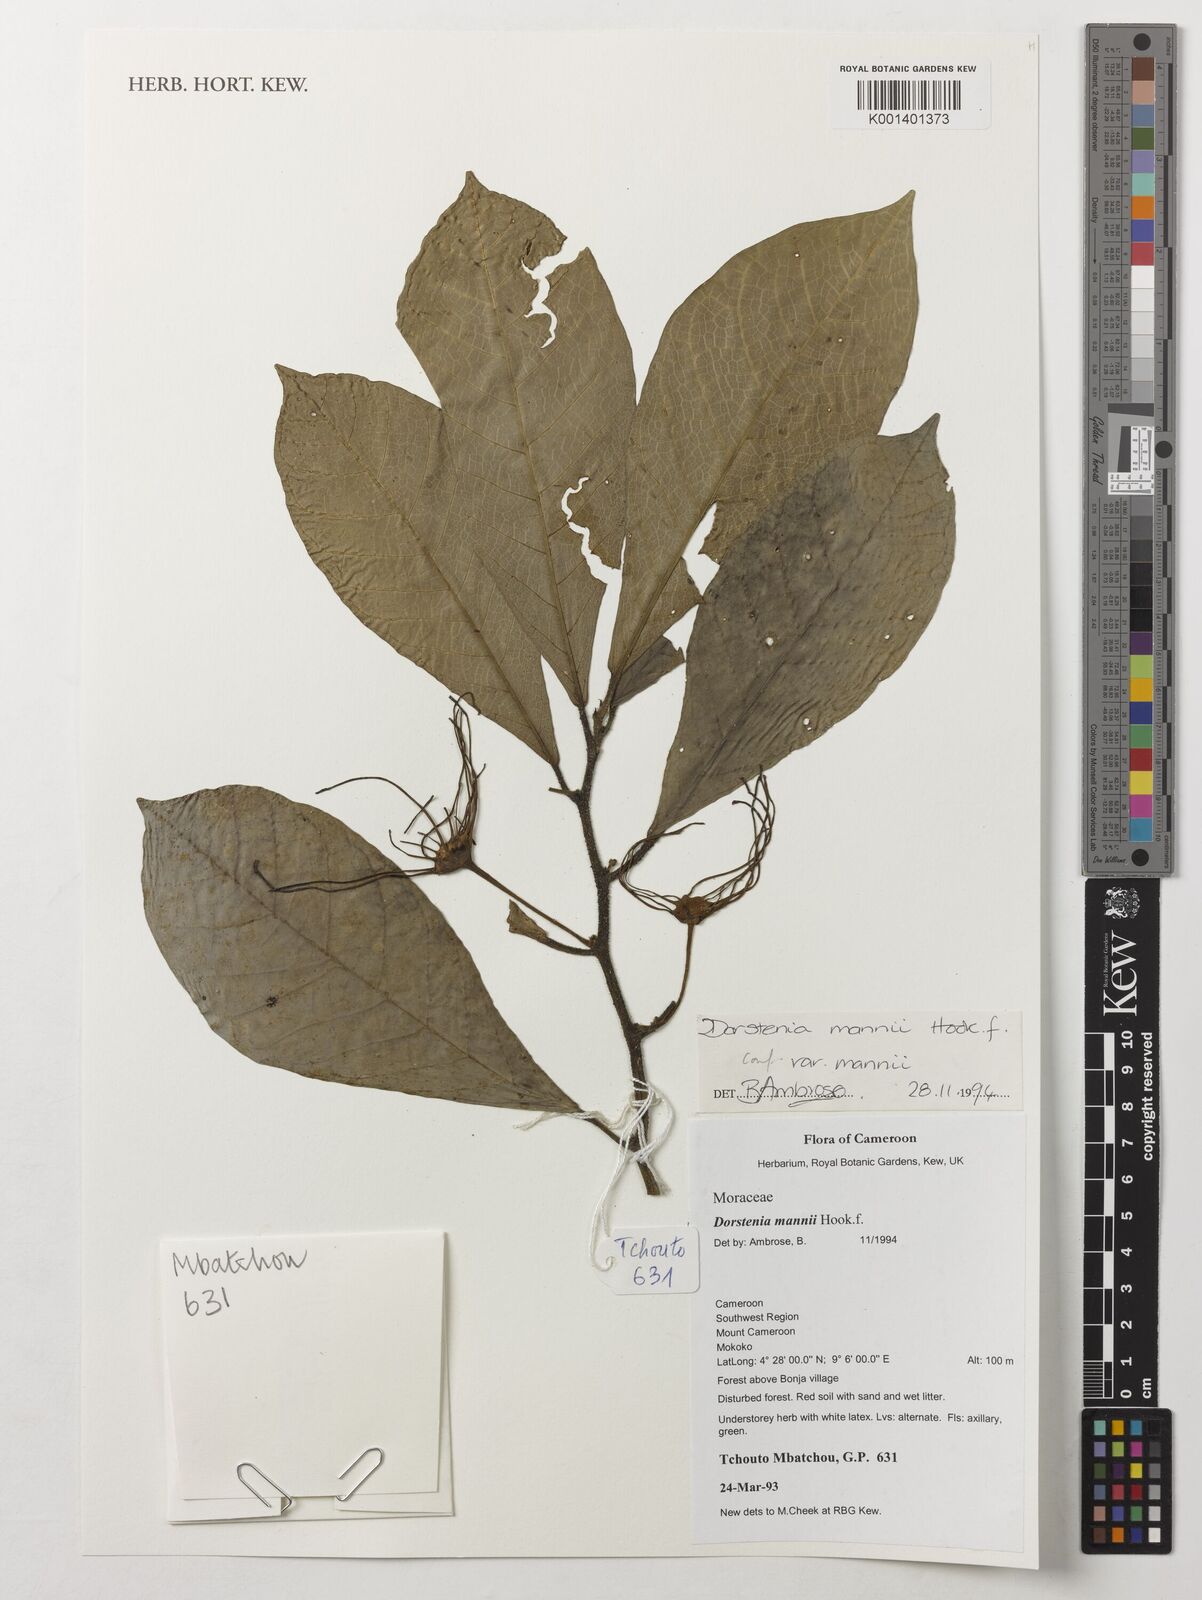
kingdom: Plantae
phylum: Tracheophyta
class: Magnoliopsida
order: Rosales
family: Moraceae
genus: Dorstenia
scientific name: Dorstenia mannii
